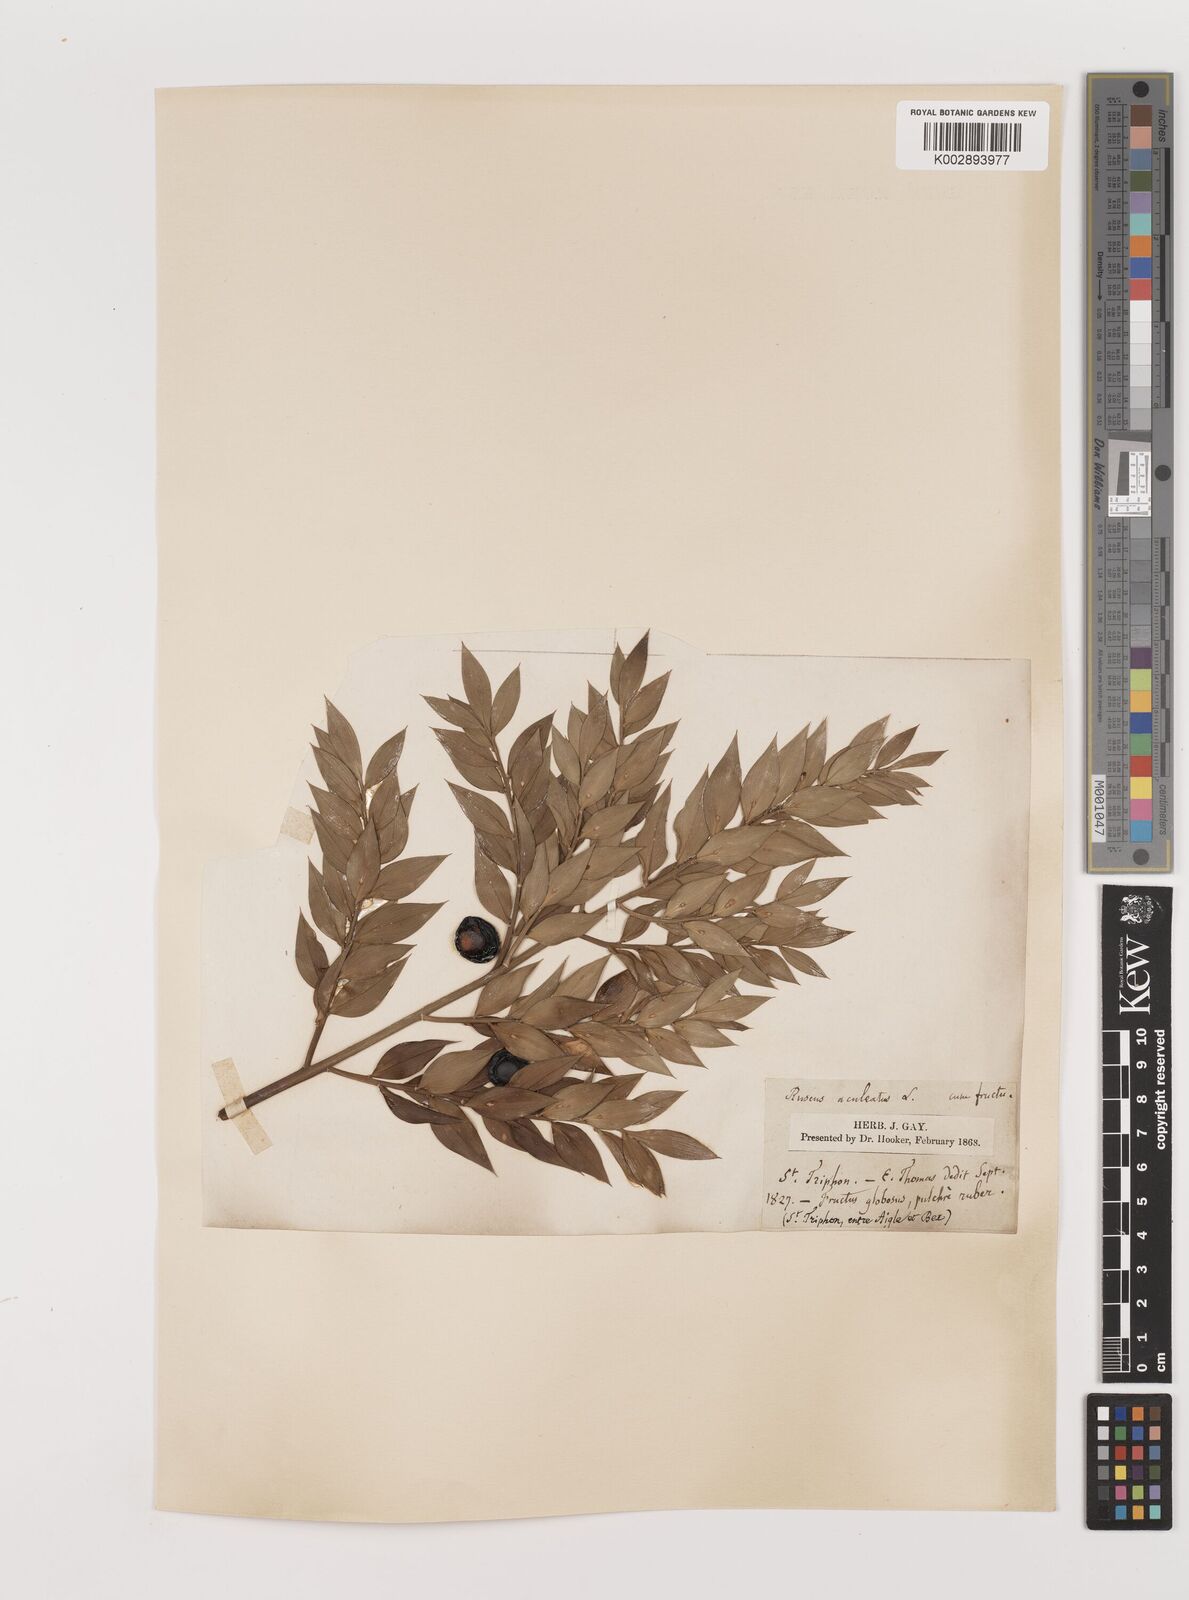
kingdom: Plantae
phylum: Tracheophyta
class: Liliopsida
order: Asparagales
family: Asparagaceae
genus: Ruscus
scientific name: Ruscus aculeatus
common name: Butcher's-broom
